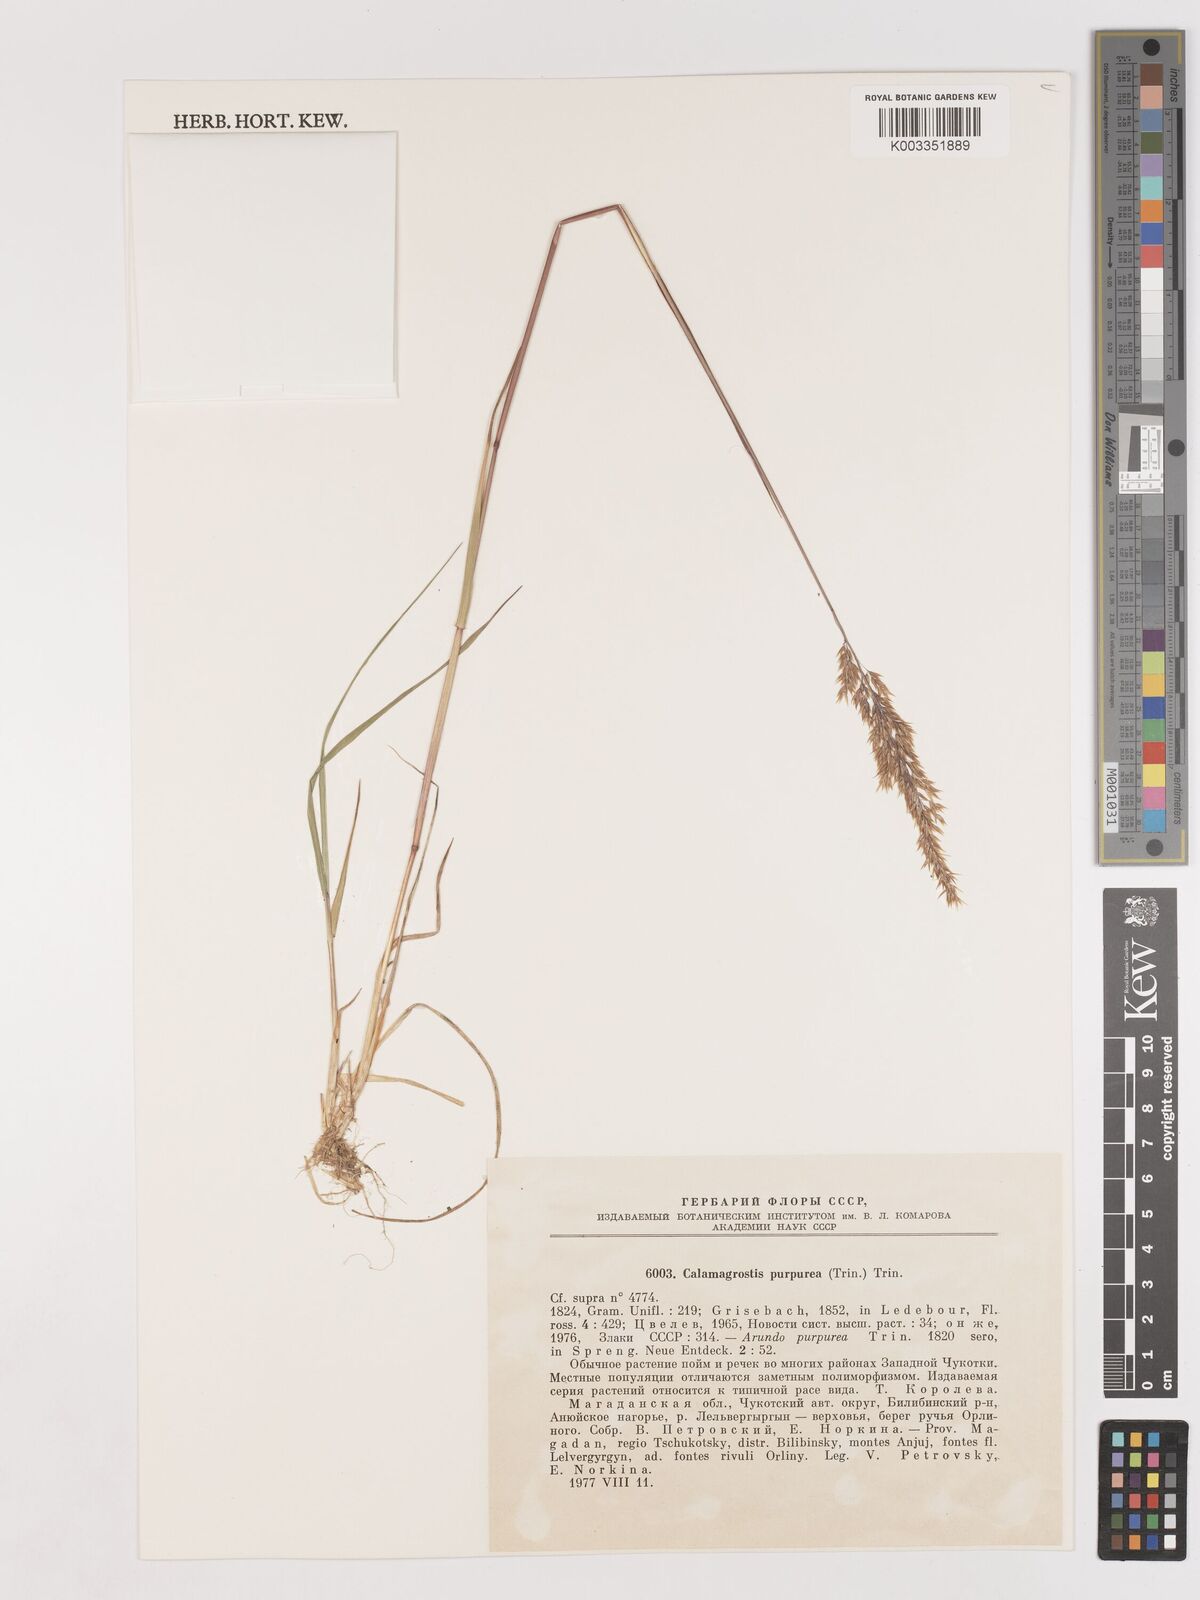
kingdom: Plantae
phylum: Tracheophyta
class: Liliopsida
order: Poales
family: Poaceae
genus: Calamagrostis
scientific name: Calamagrostis purpurea
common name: Scandinavian small-reed
